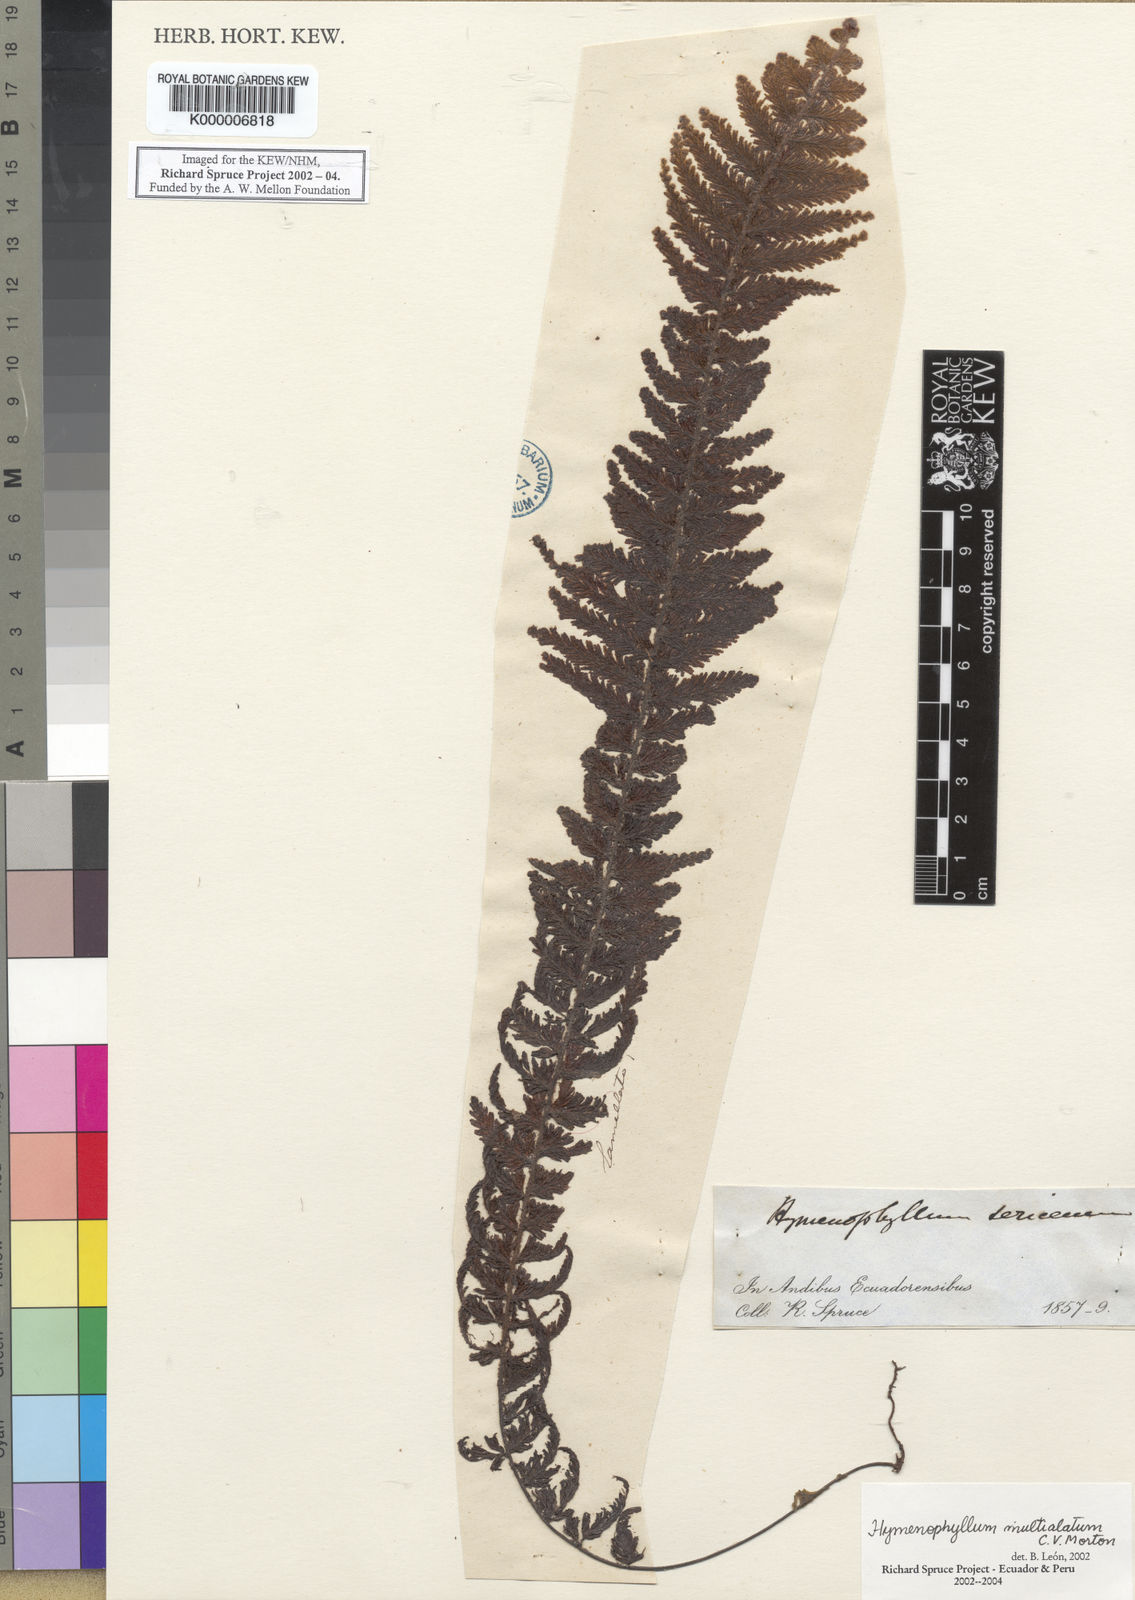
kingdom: Plantae
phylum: Tracheophyta
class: Polypodiopsida
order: Hymenophyllales
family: Hymenophyllaceae
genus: Hymenophyllum
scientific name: Hymenophyllum multialatum
